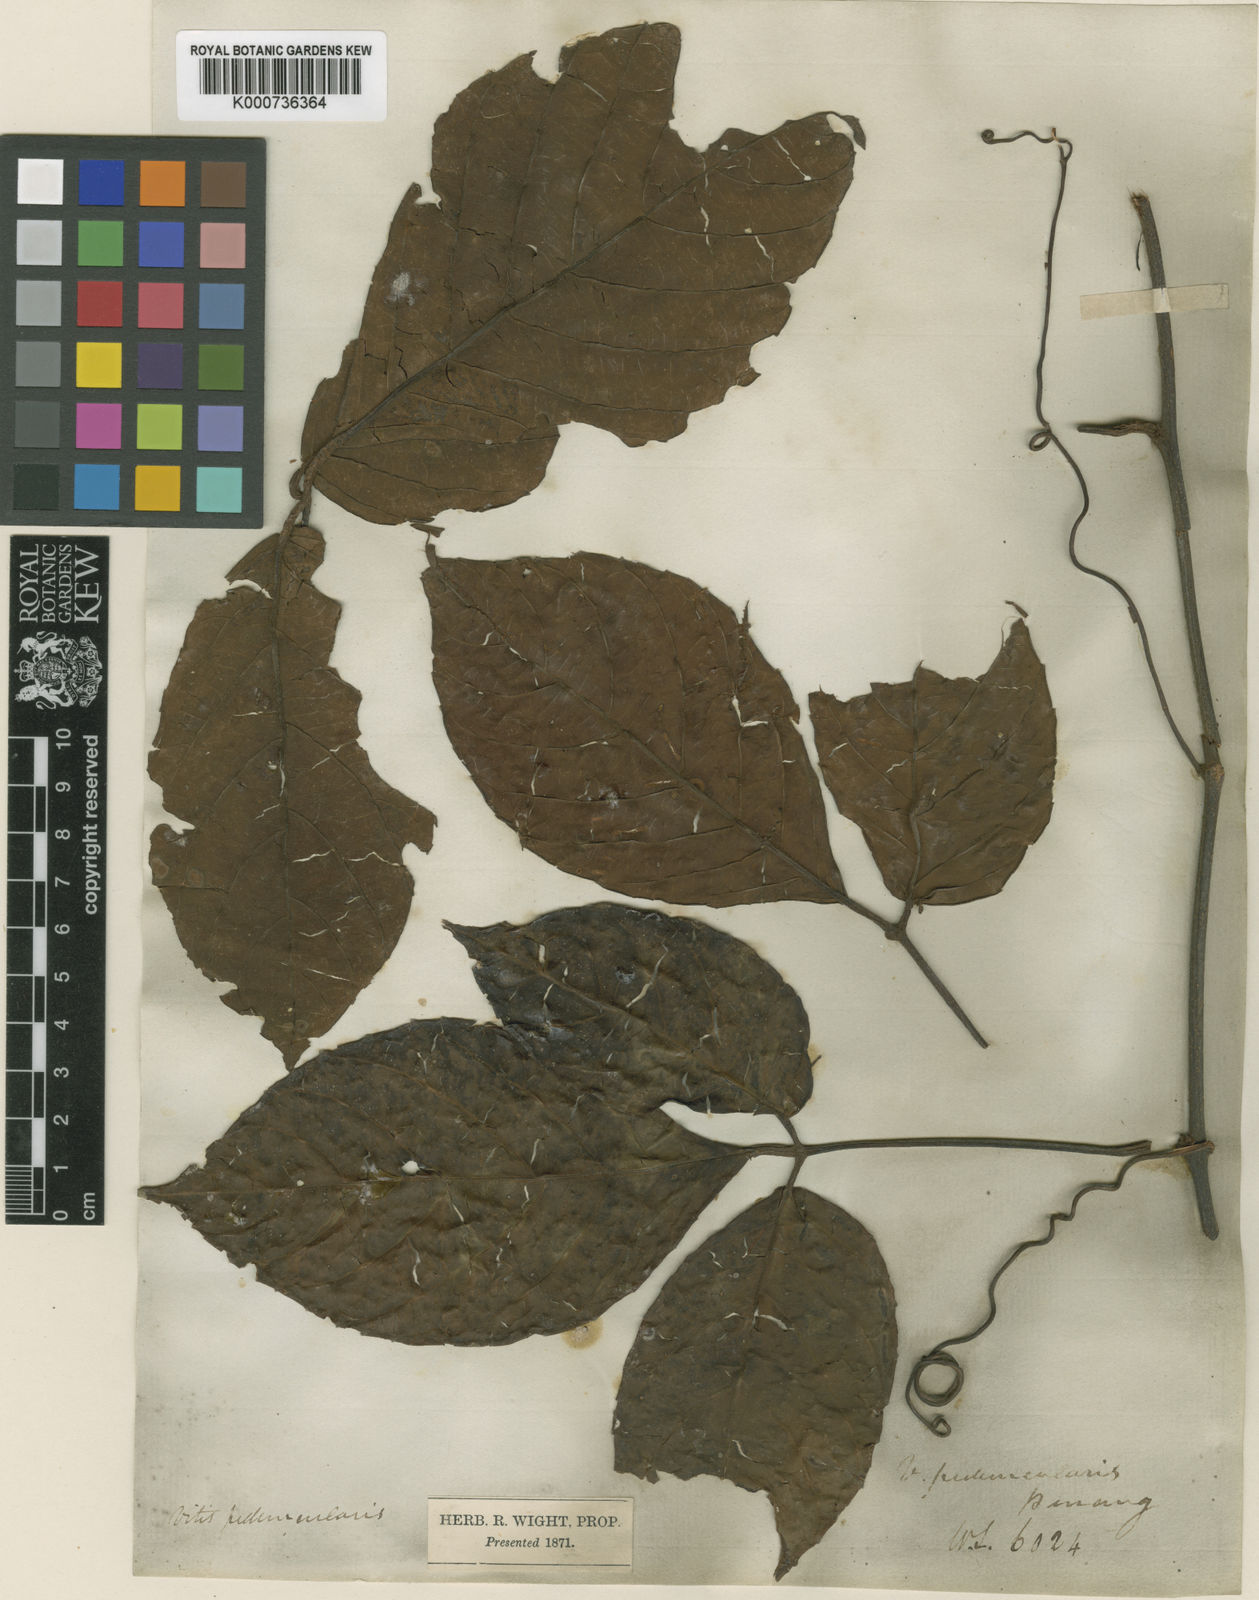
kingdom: Plantae
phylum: Tracheophyta
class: Magnoliopsida
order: Vitales
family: Vitaceae
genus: Tetrastigma
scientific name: Tetrastigma pedunculare
